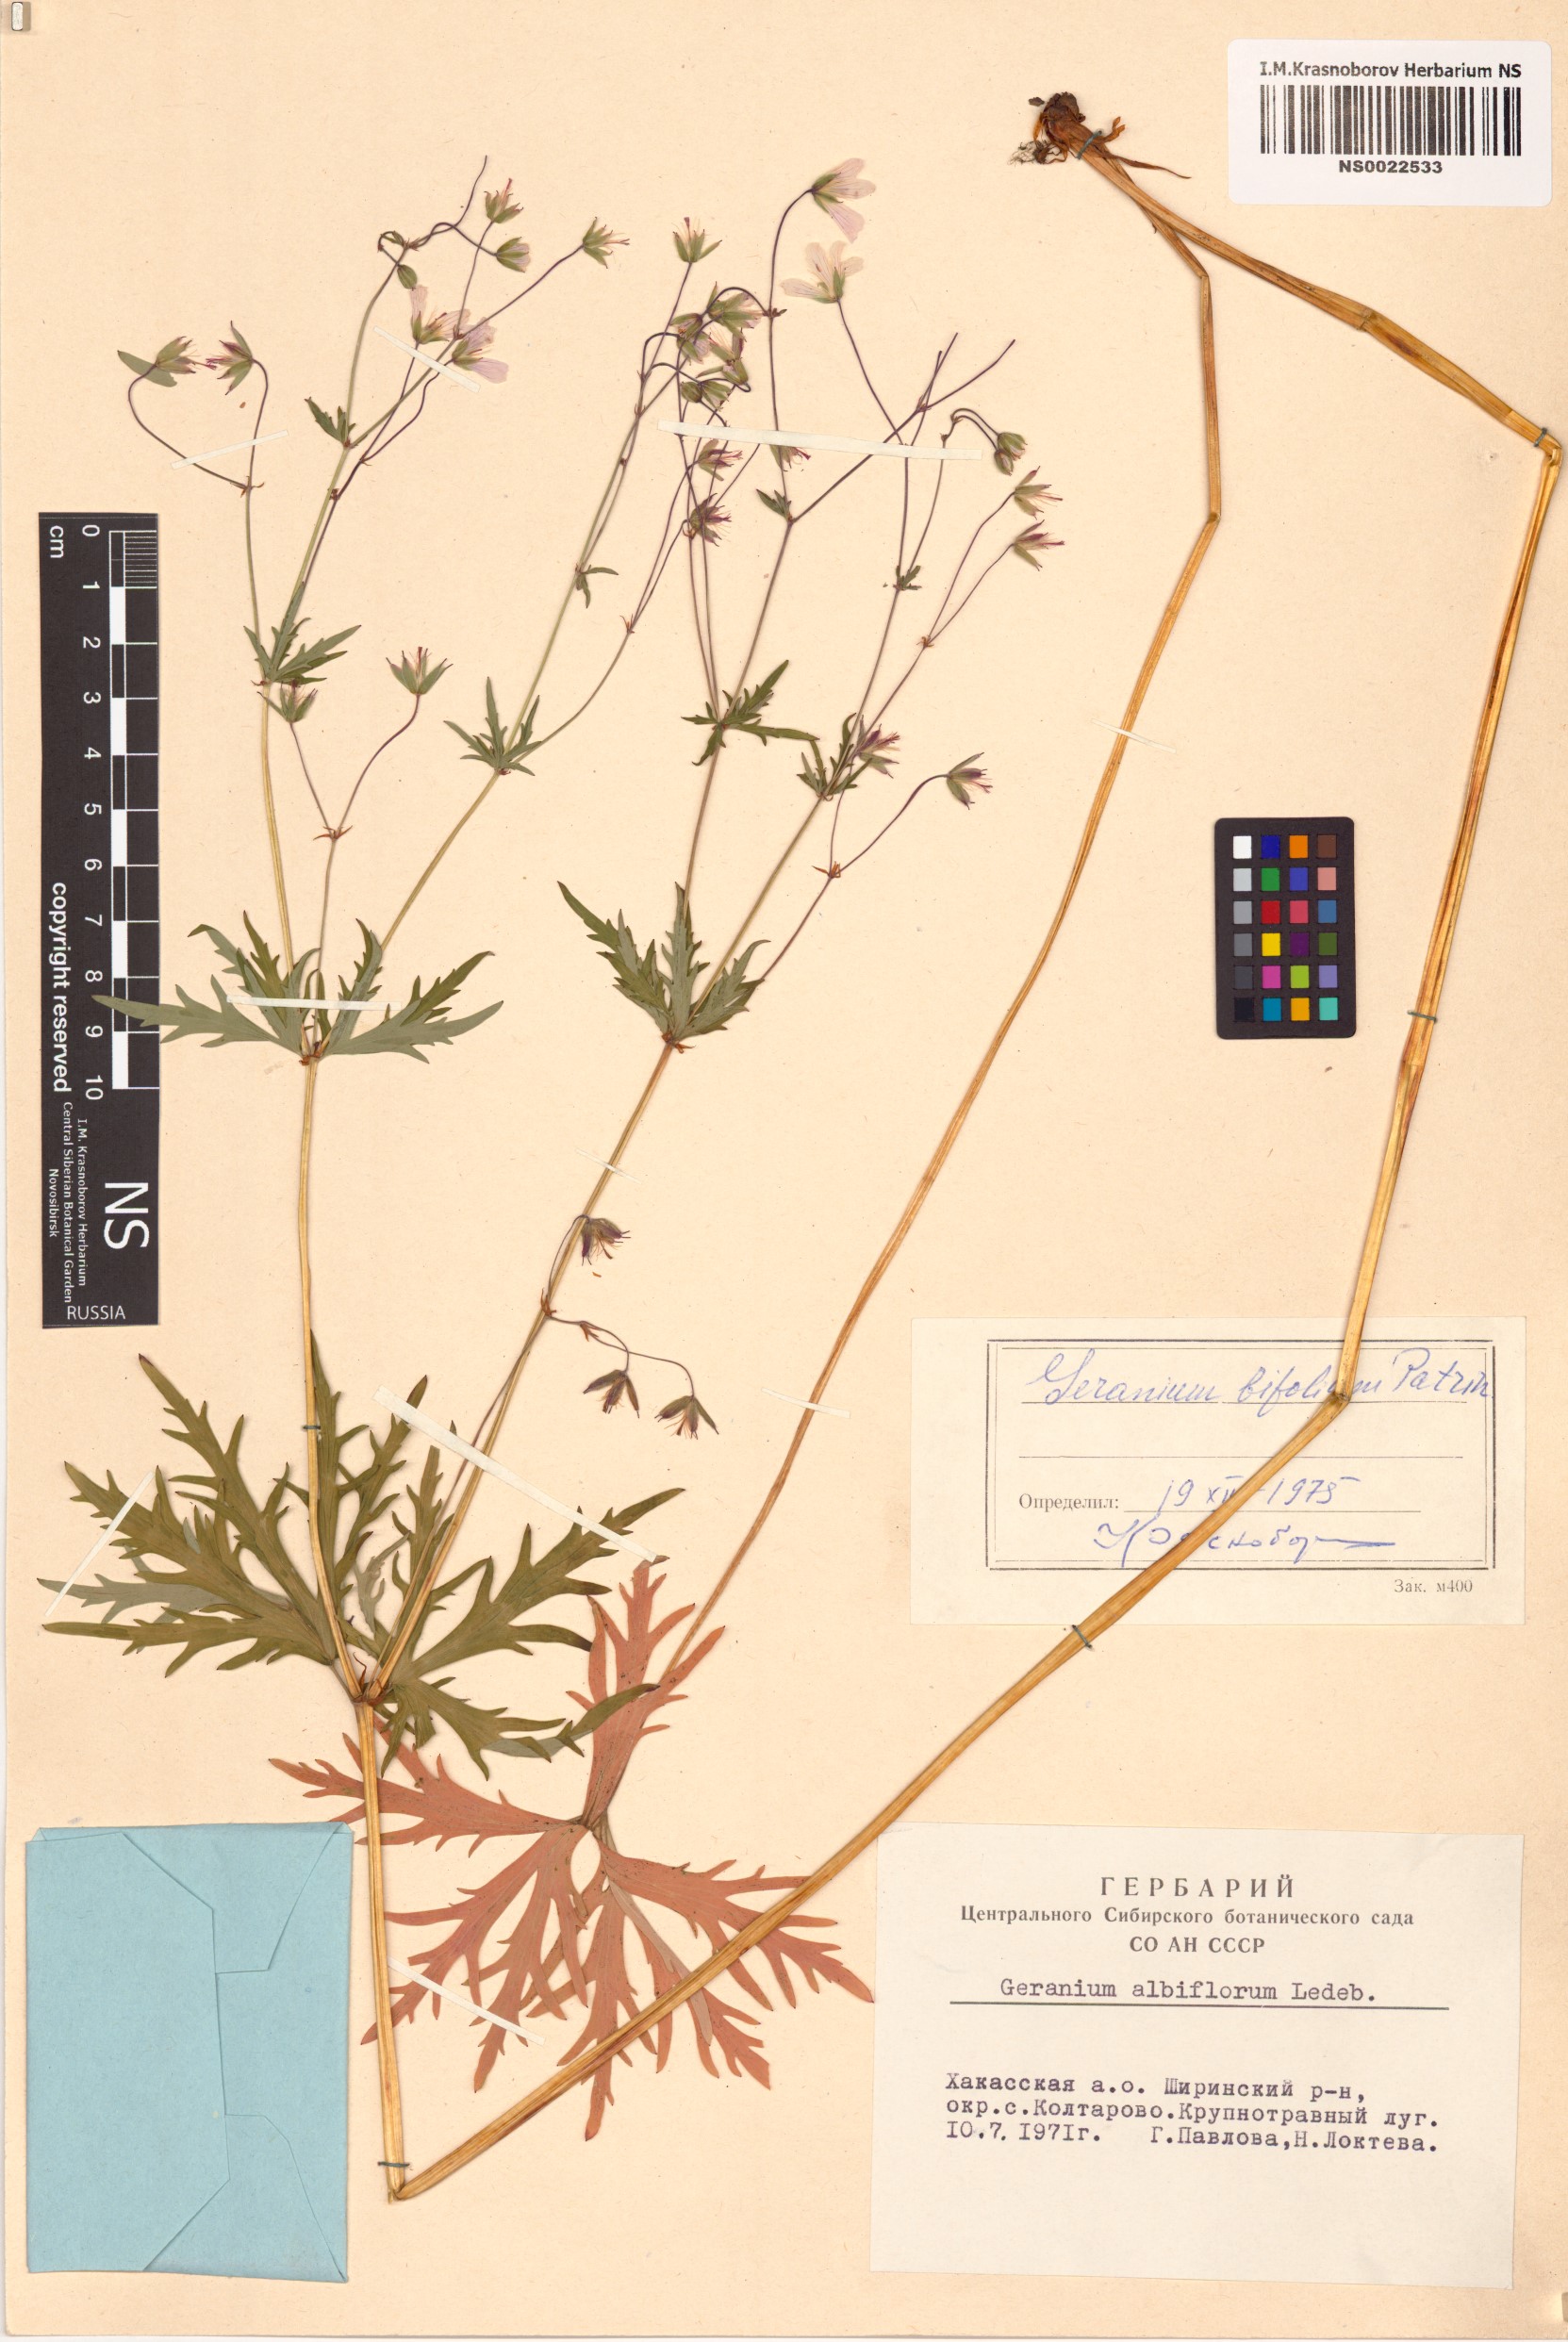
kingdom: Plantae
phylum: Tracheophyta
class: Magnoliopsida
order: Geraniales
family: Geraniaceae
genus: Geranium
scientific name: Geranium pseudosibiricum
